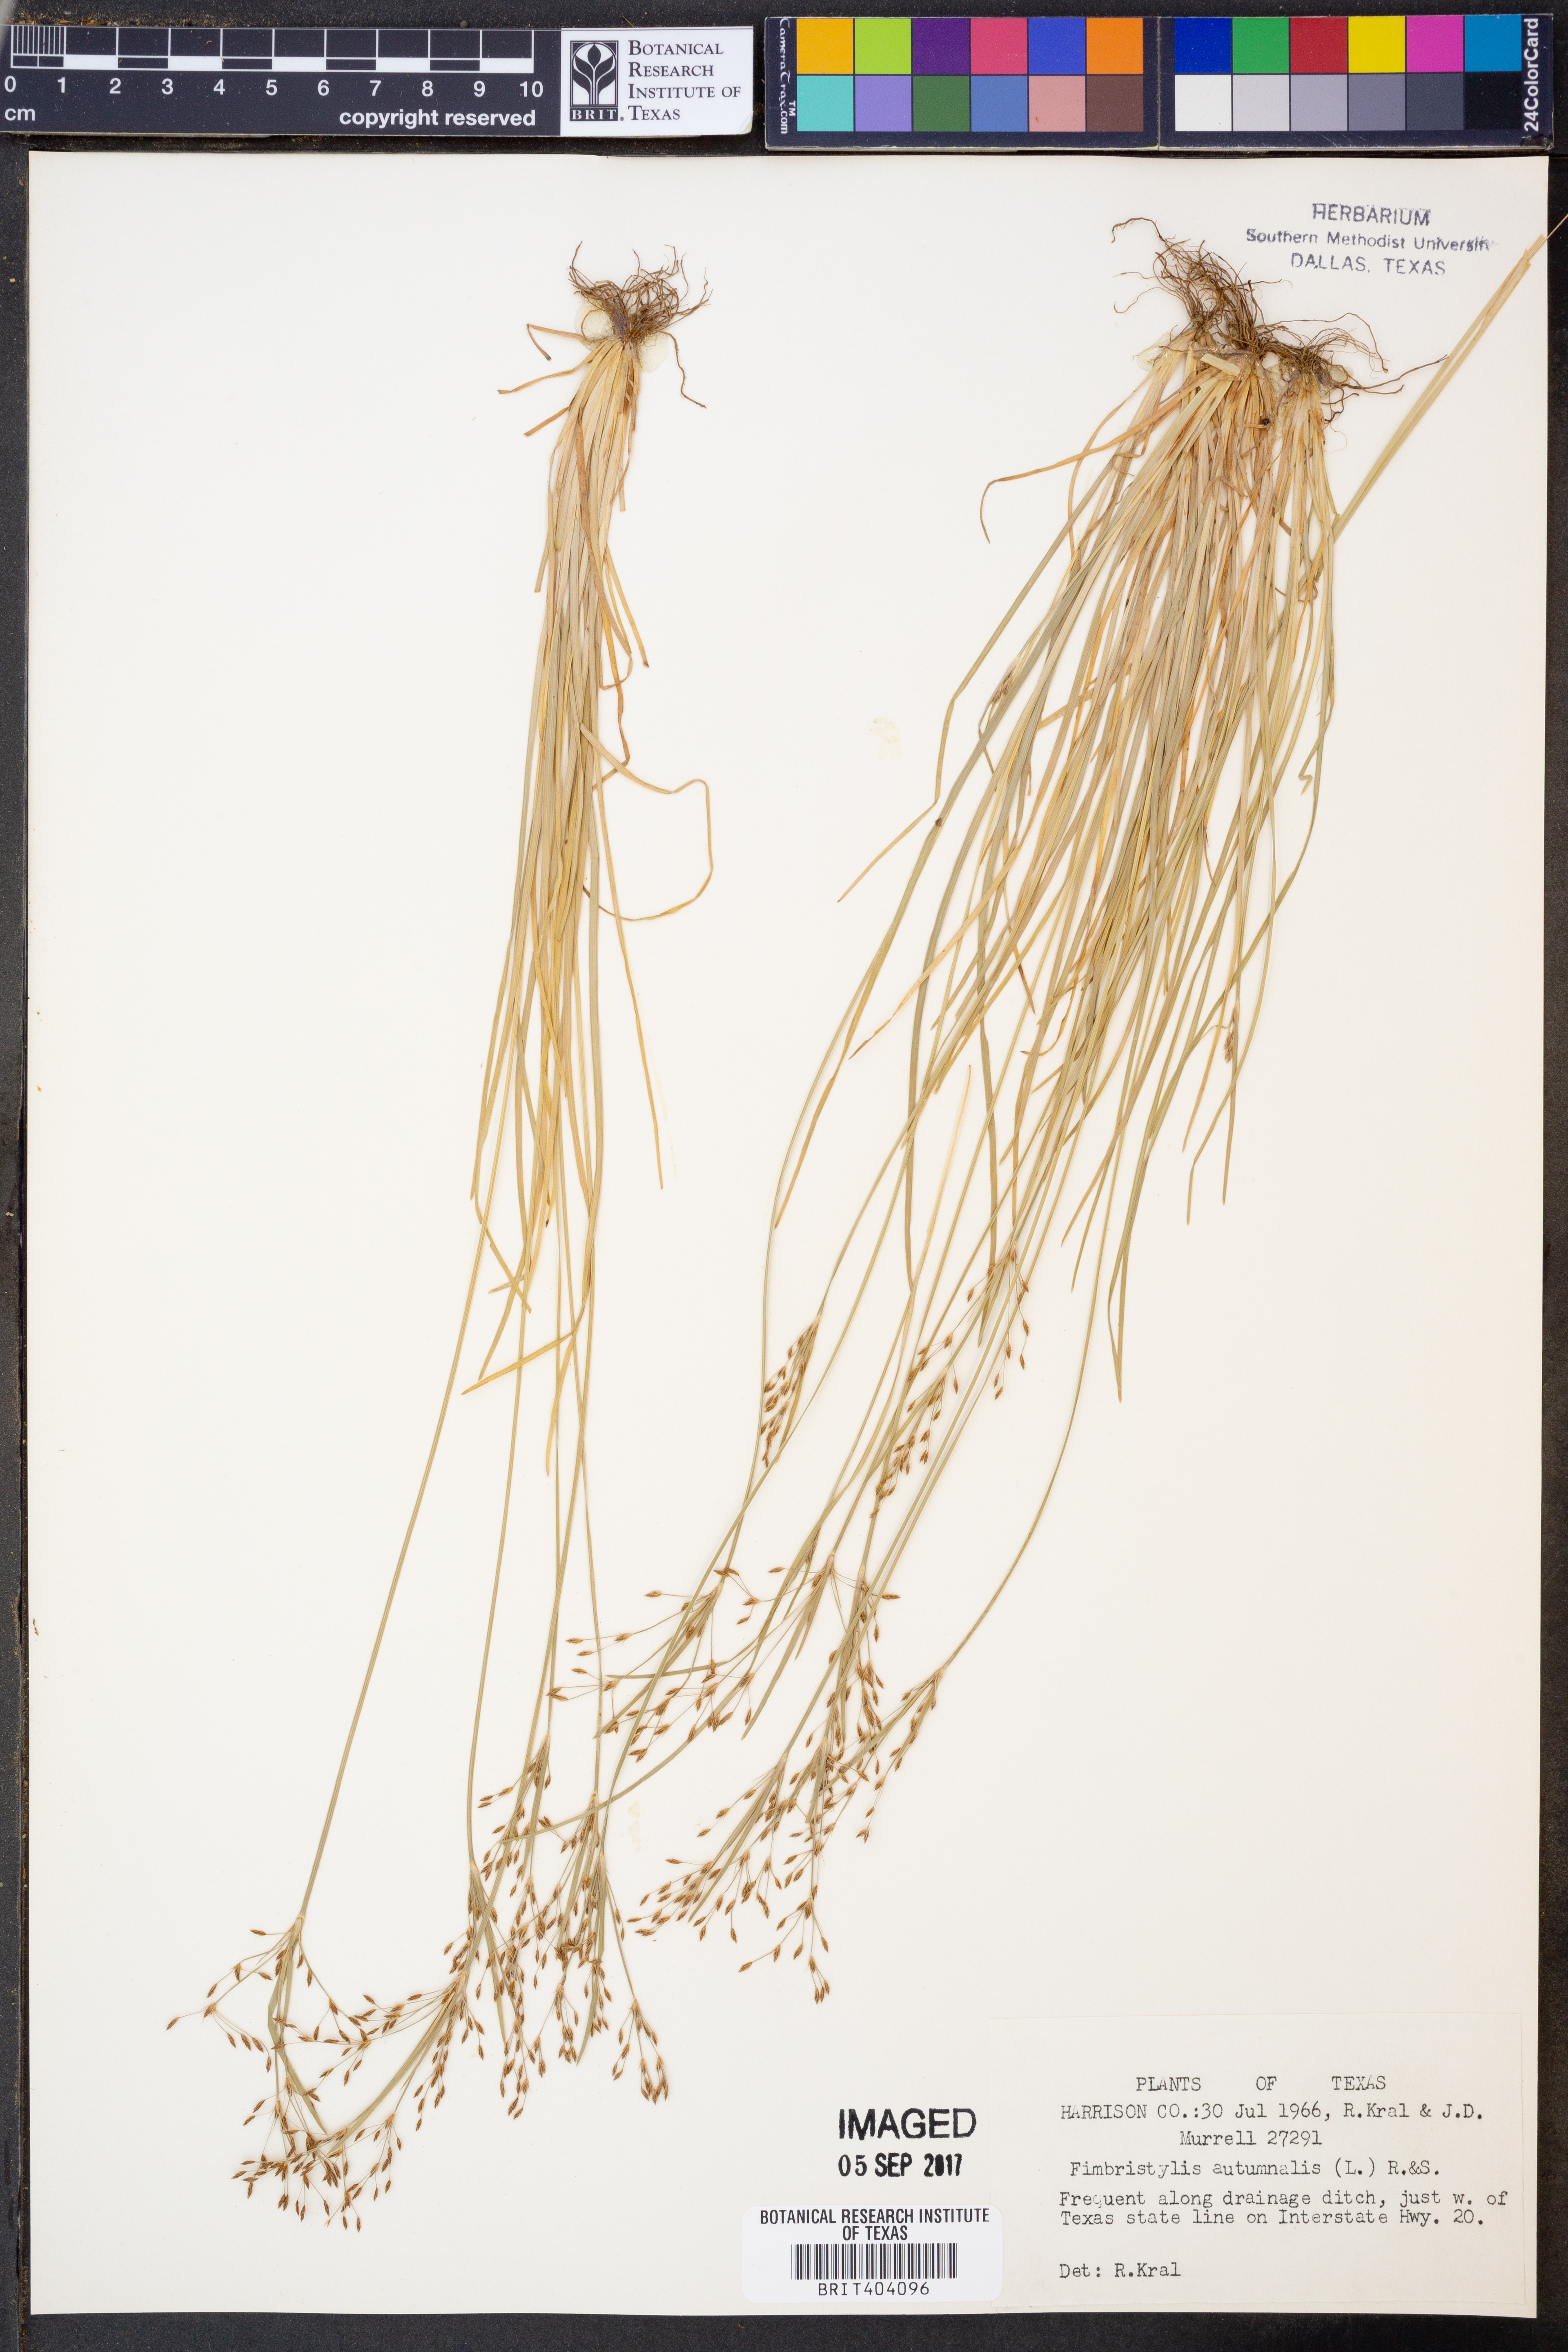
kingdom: Plantae
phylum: Tracheophyta
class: Liliopsida
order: Poales
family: Cyperaceae
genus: Fimbristylis
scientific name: Fimbristylis autumnalis
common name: Slender fimbristylis
